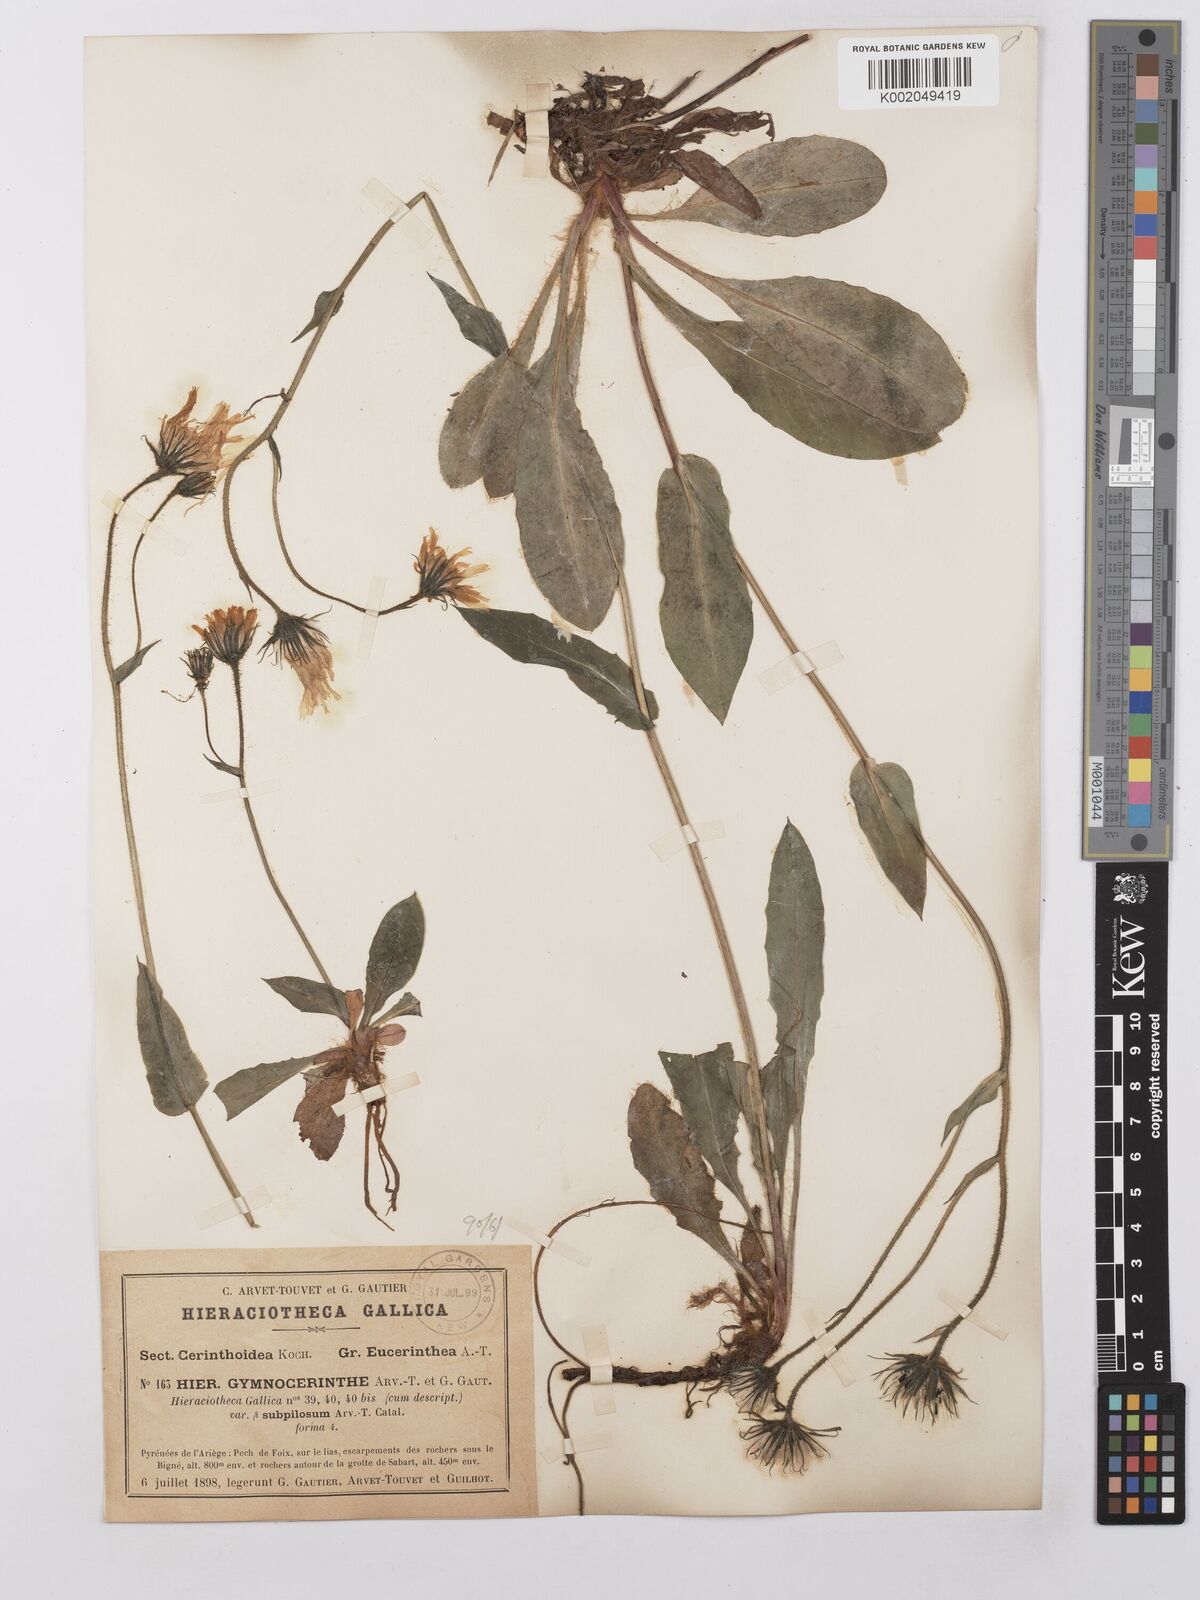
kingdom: Plantae
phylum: Tracheophyta
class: Magnoliopsida
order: Asterales
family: Asteraceae
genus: Hieracium
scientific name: Hieracium cerinthoides
